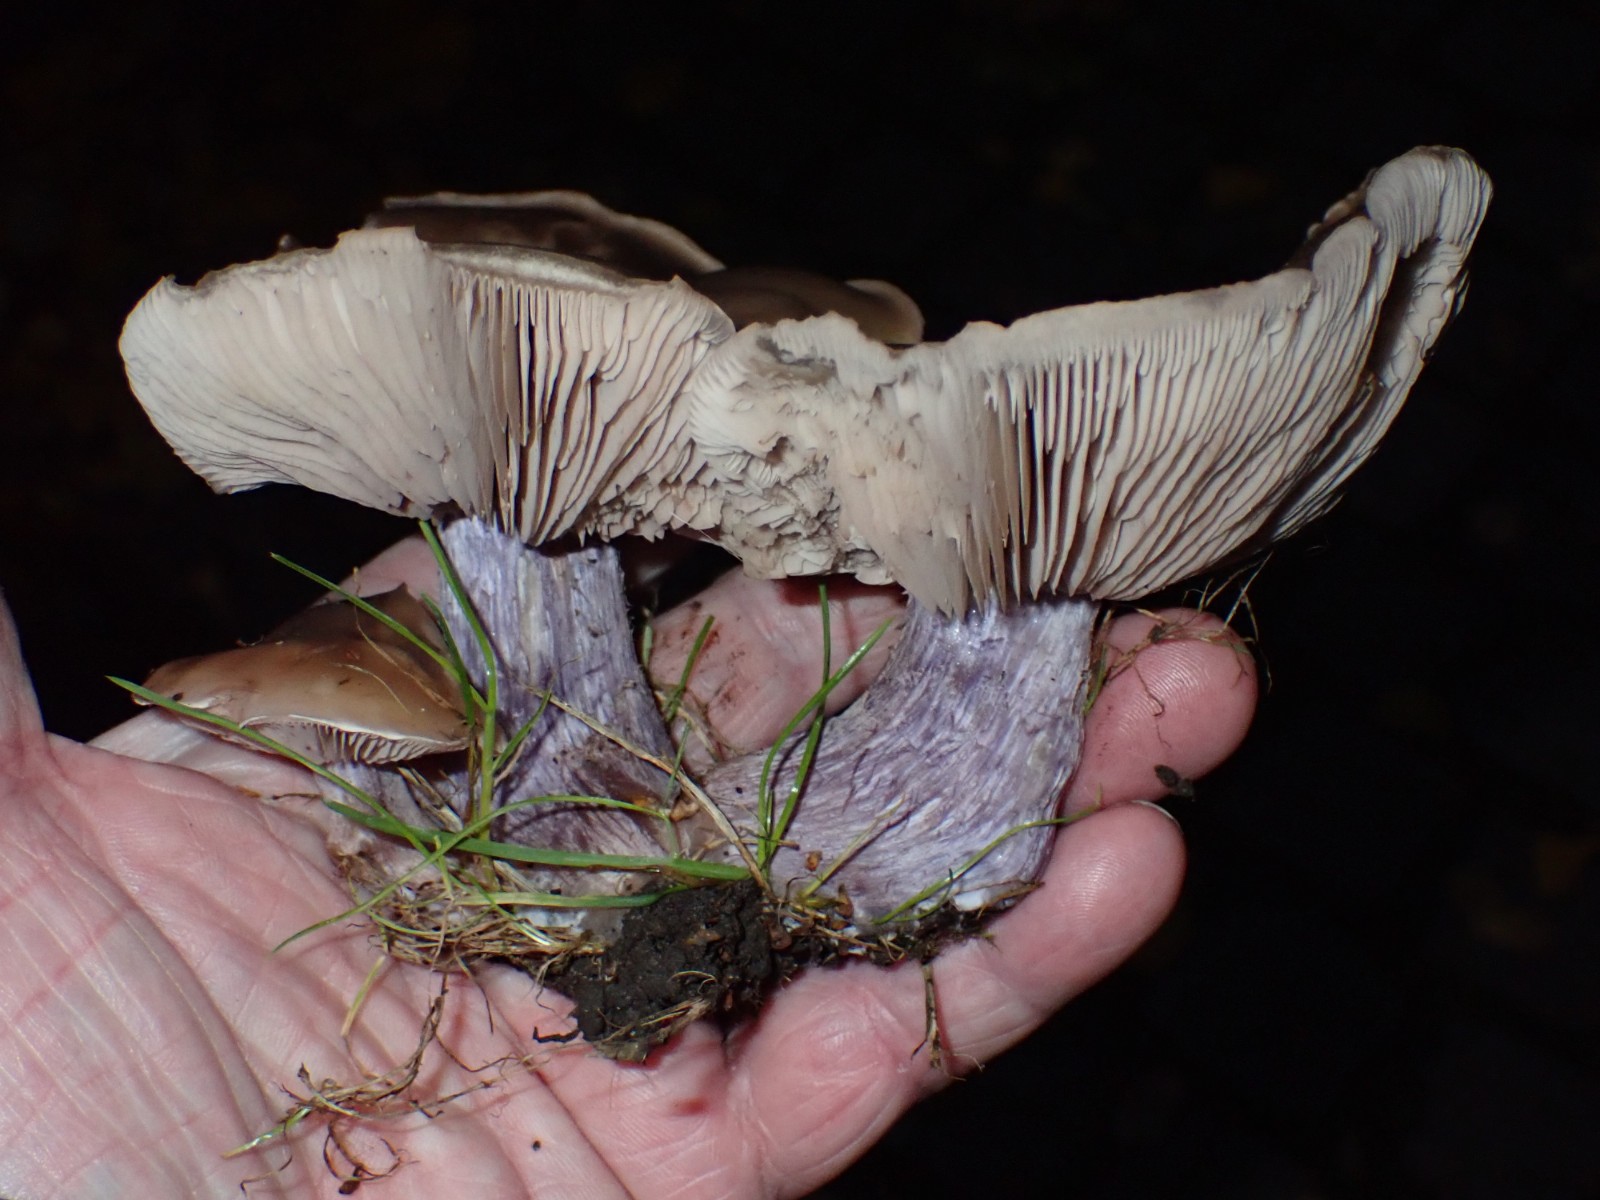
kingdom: Fungi
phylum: Basidiomycota
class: Agaricomycetes
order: Agaricales
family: Tricholomataceae
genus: Lepista
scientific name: Lepista personata
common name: bleg hekseringshat
